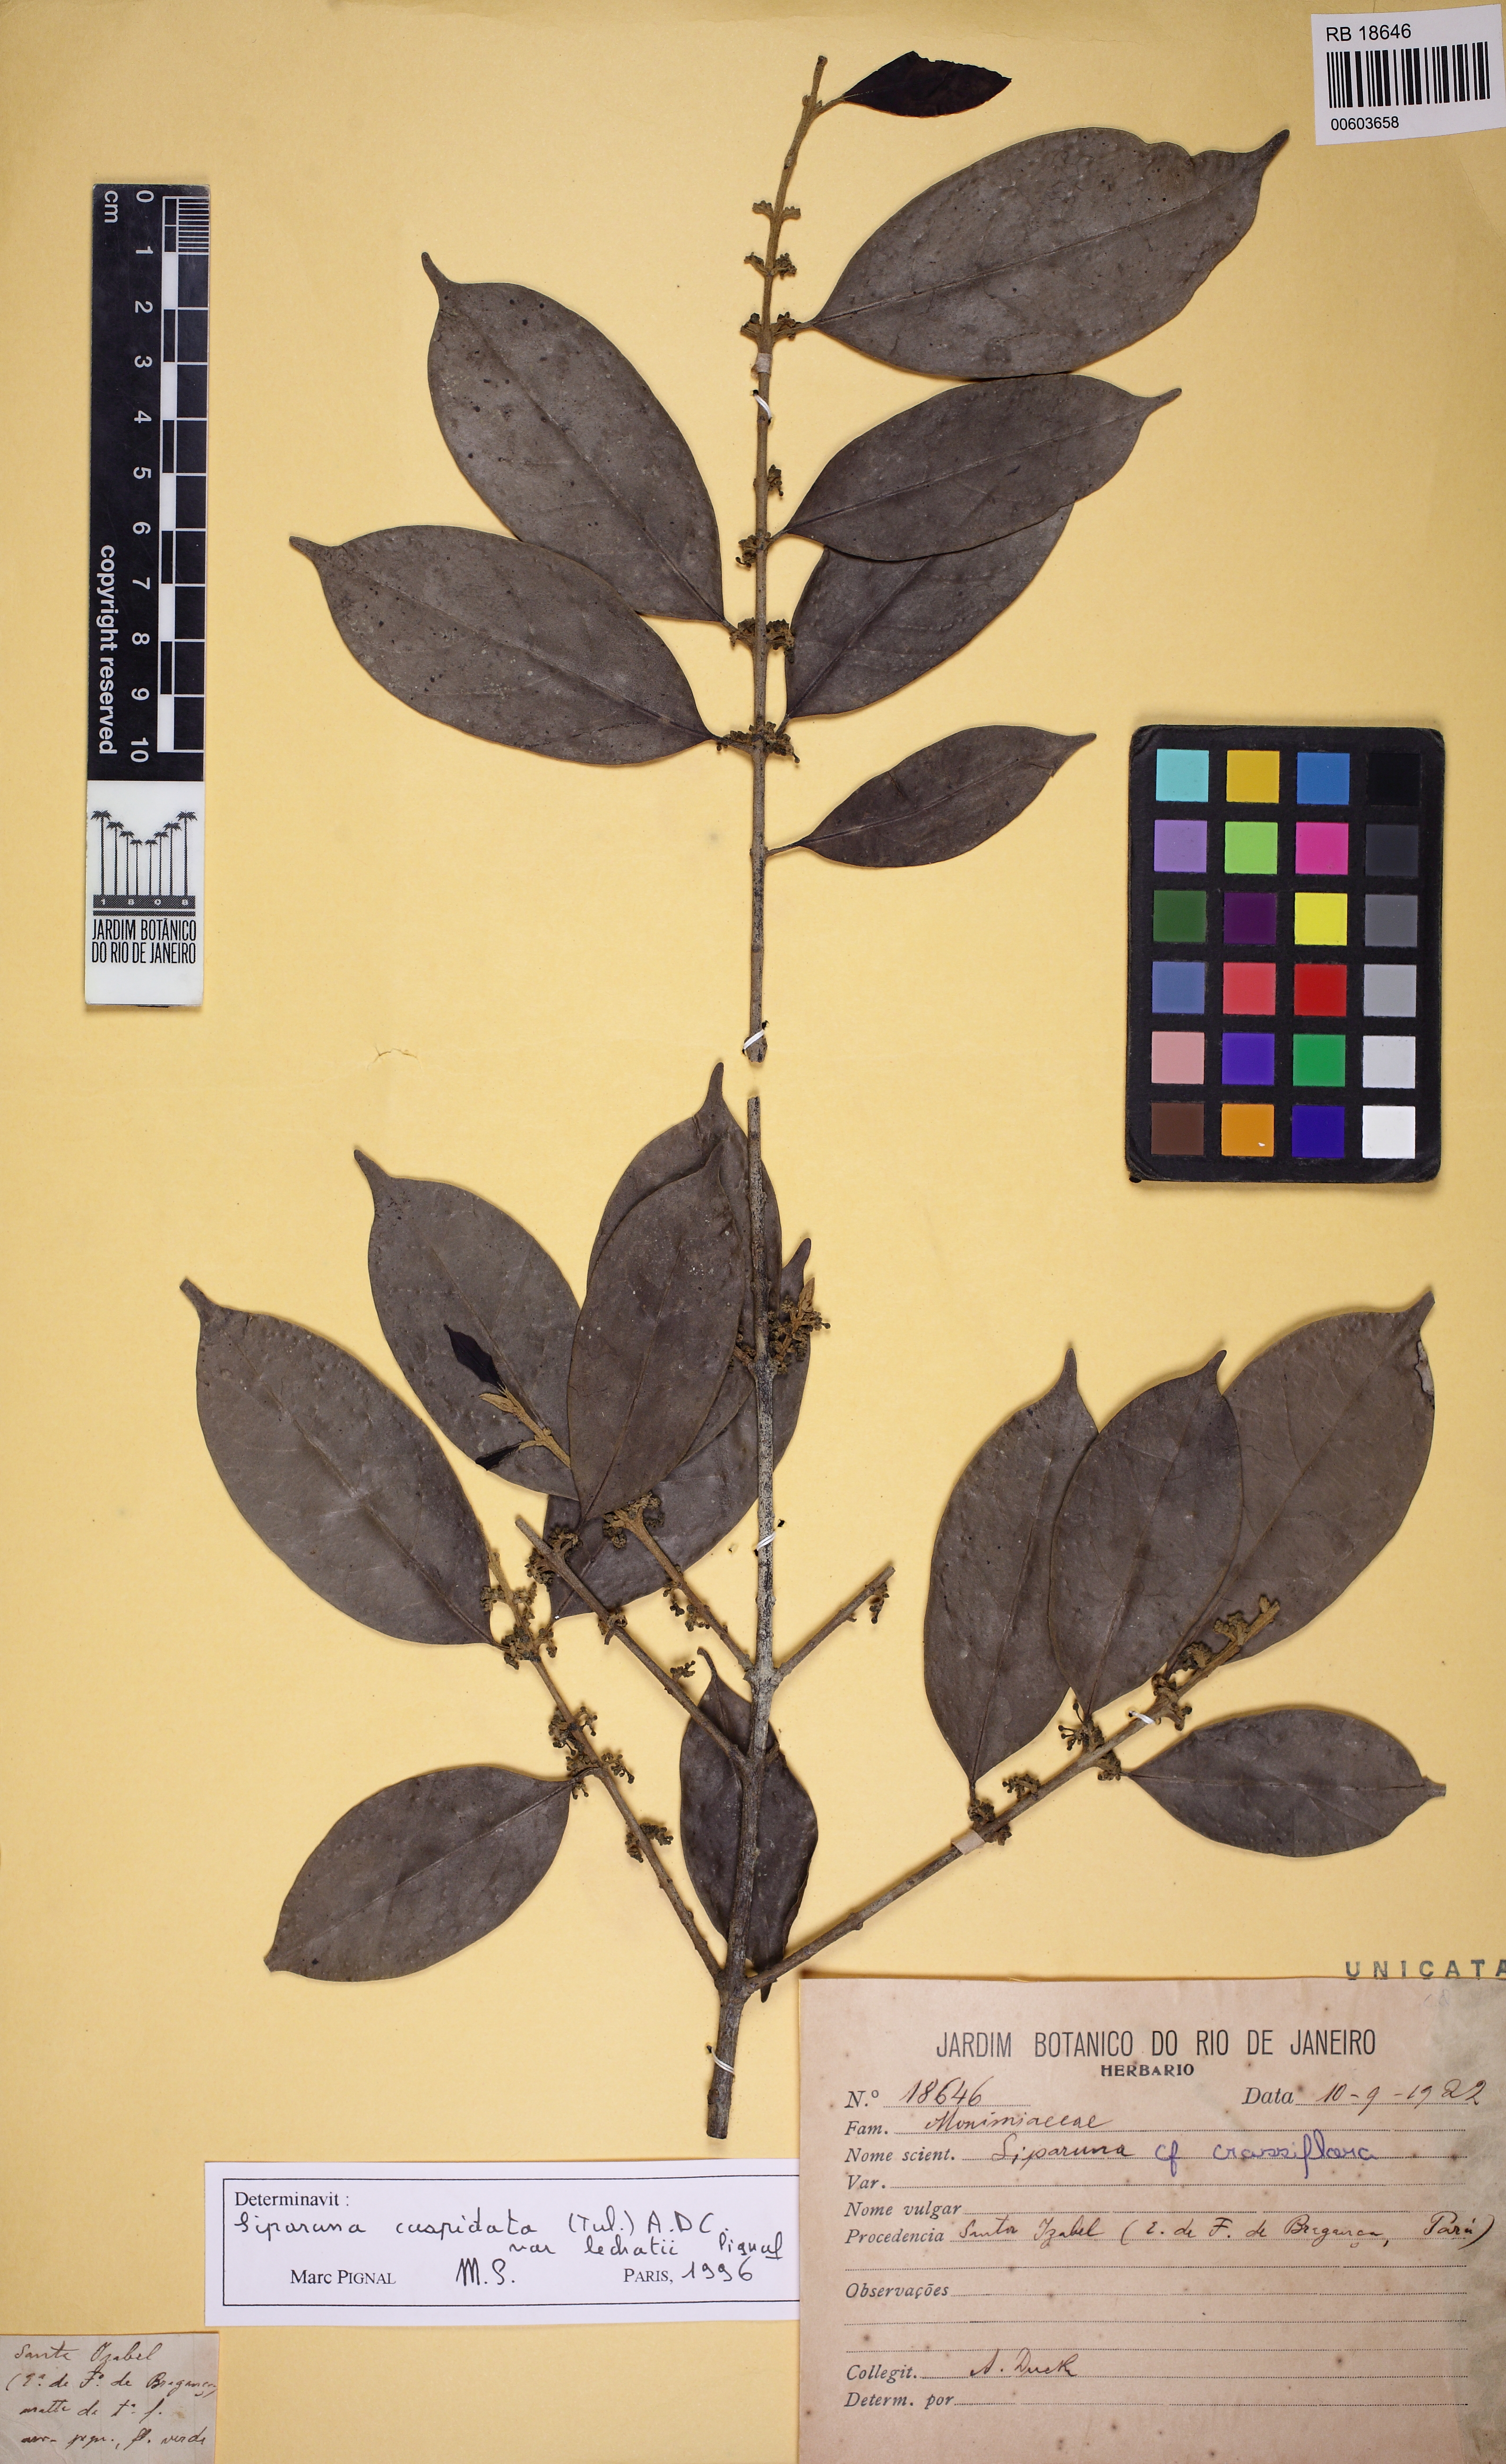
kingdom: Plantae
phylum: Tracheophyta
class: Magnoliopsida
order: Laurales
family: Siparunaceae
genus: Siparuna
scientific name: Siparuna cuspidata
